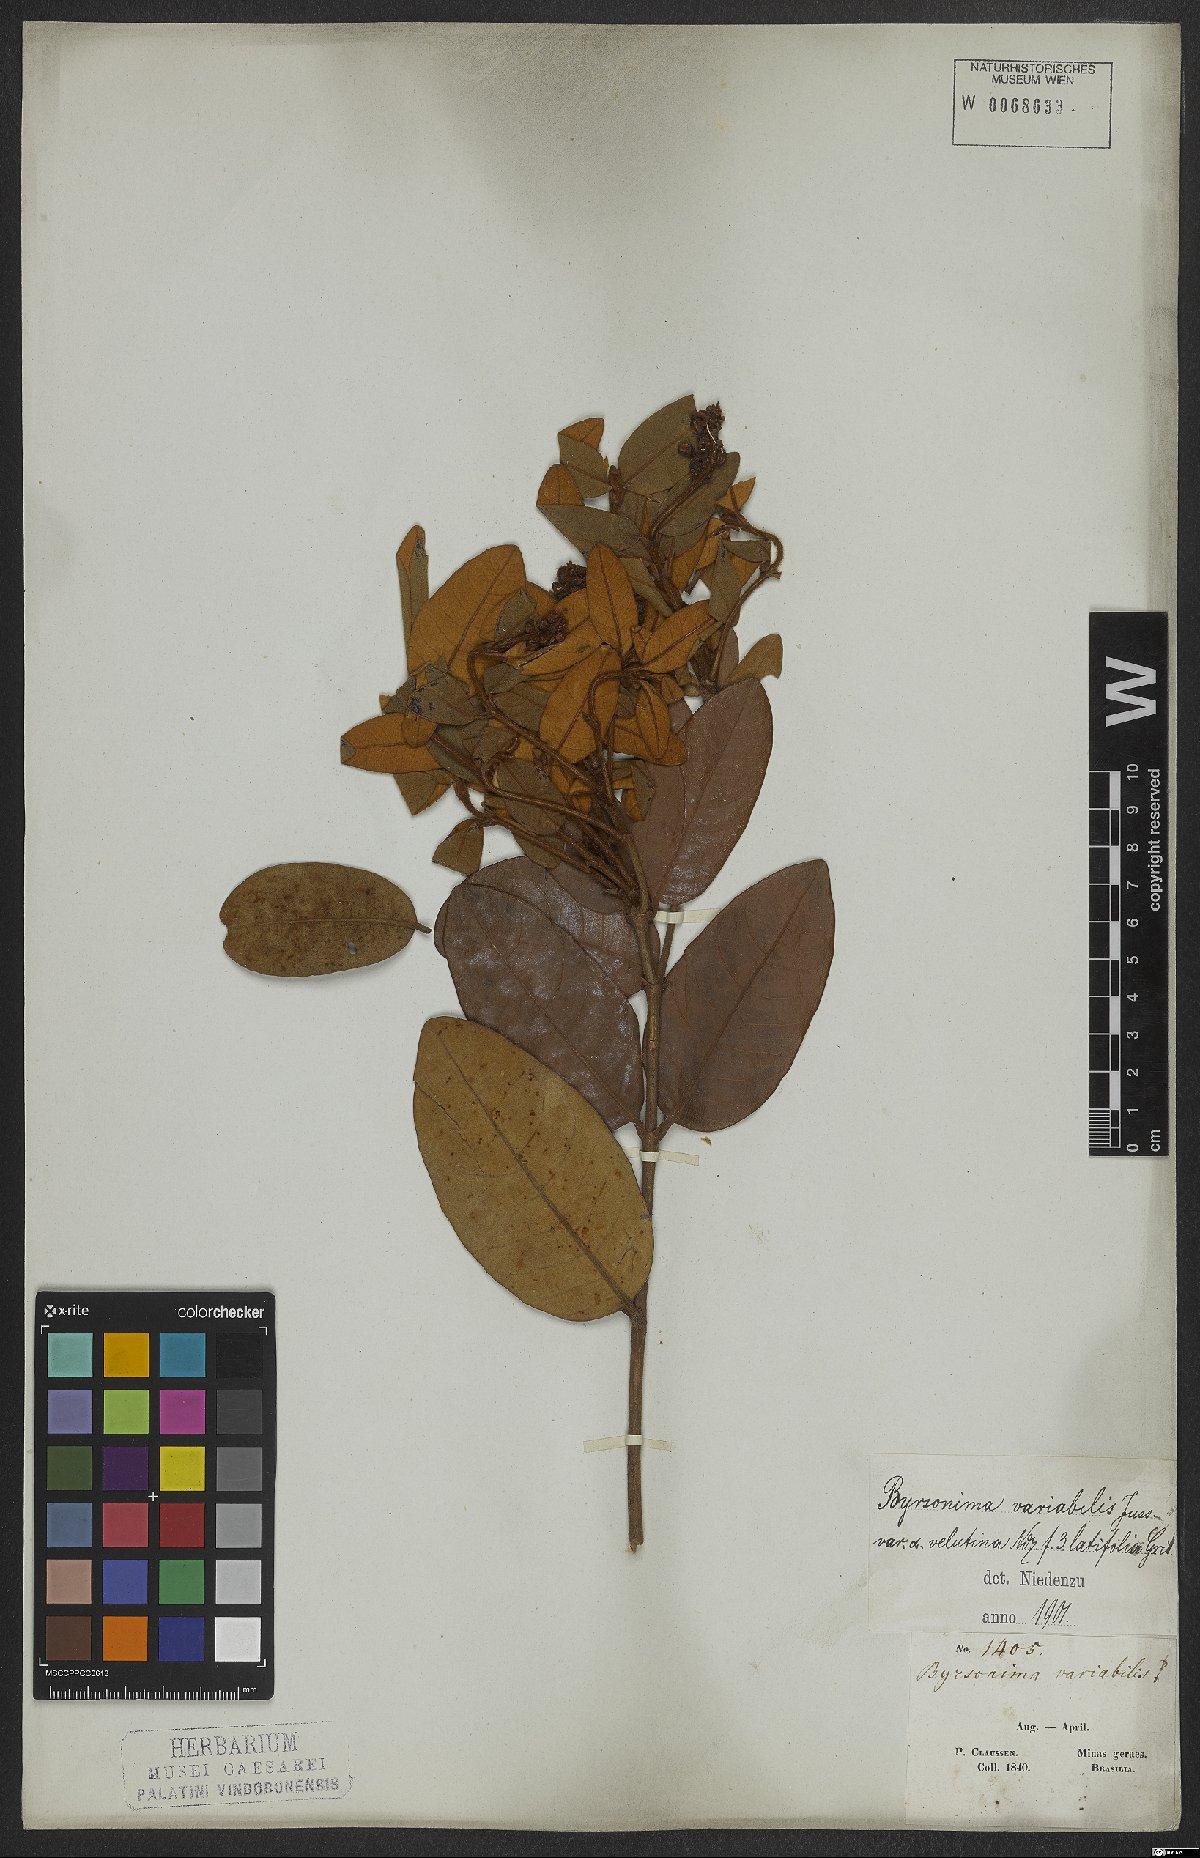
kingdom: Plantae
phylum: Tracheophyta
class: Magnoliopsida
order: Malpighiales
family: Malpighiaceae
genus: Byrsonima
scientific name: Byrsonima variabilis
